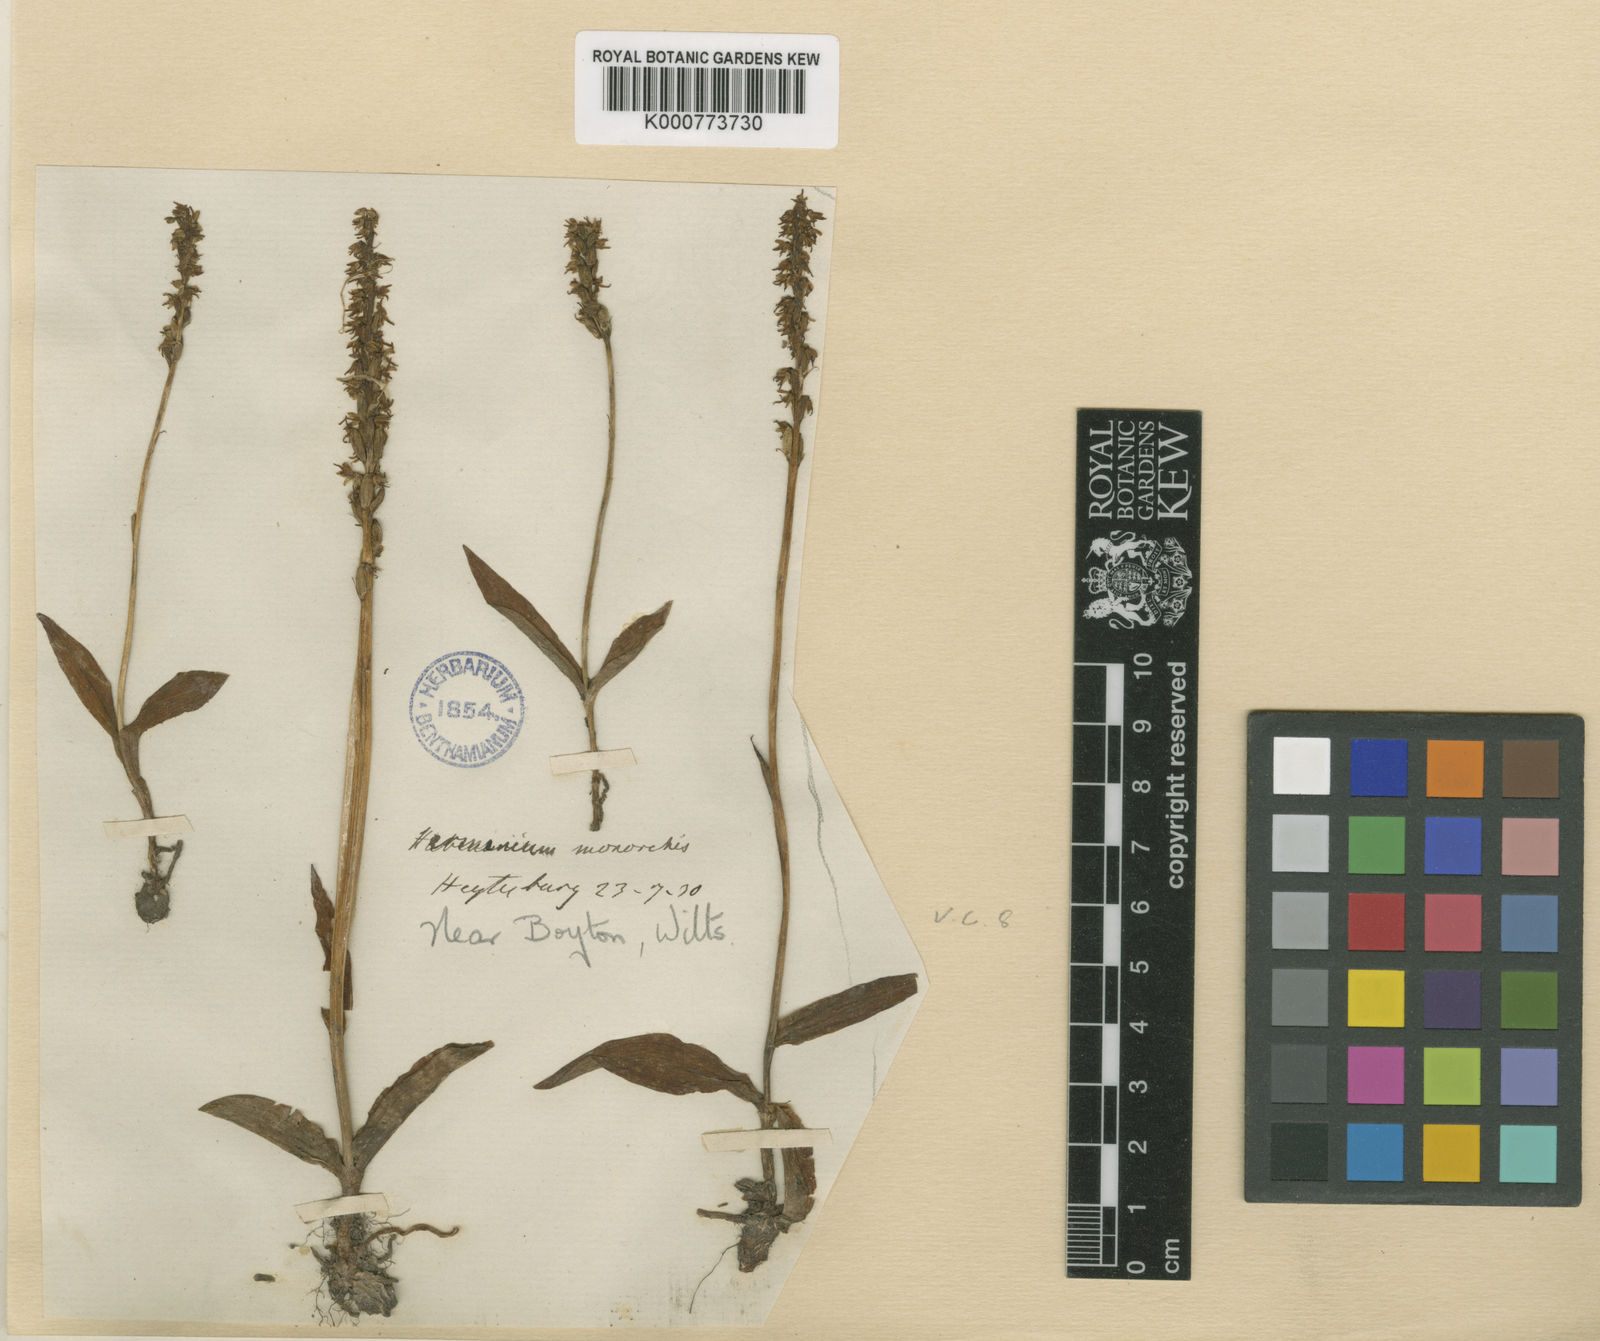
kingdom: Plantae
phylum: Tracheophyta
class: Liliopsida
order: Asparagales
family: Orchidaceae
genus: Herminium
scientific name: Herminium monorchis
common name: Musk orchid
